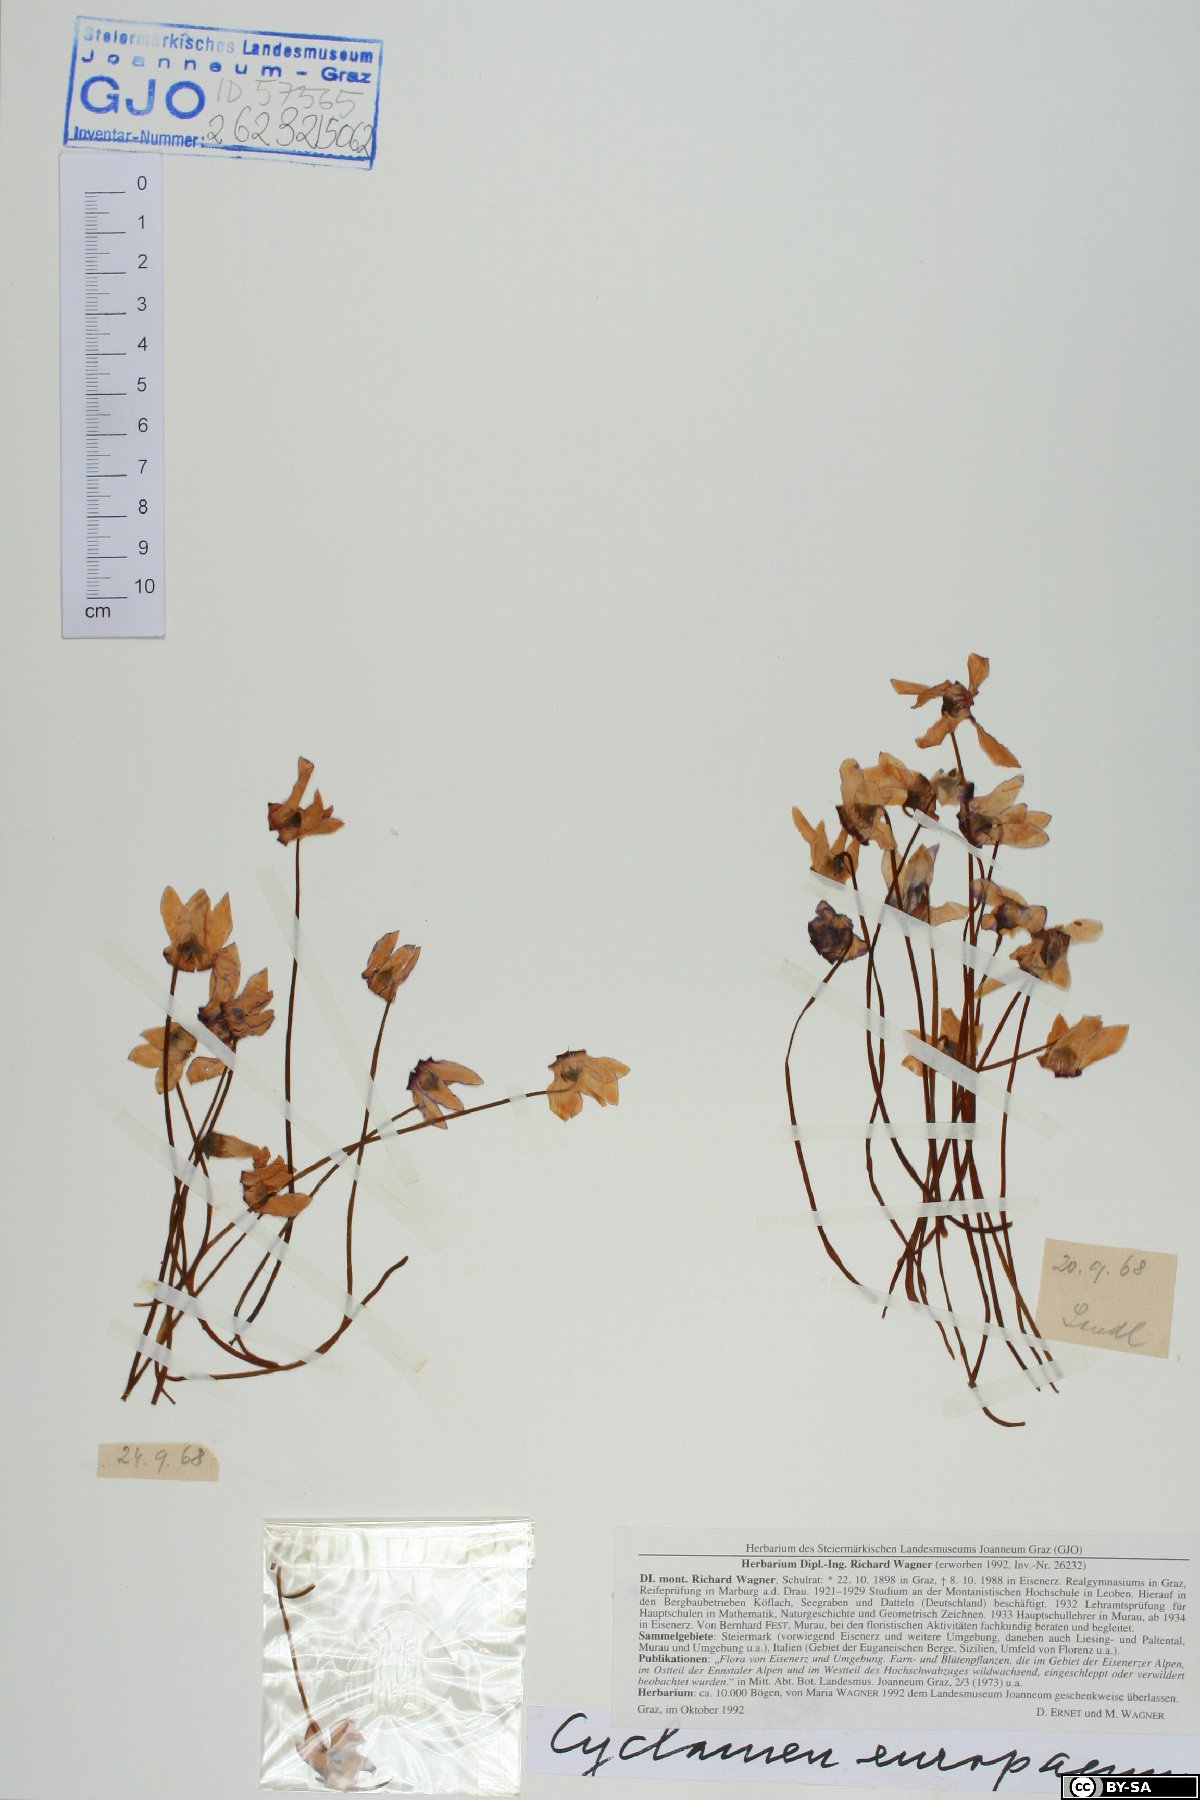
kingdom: Plantae
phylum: Tracheophyta
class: Magnoliopsida
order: Ericales
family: Primulaceae
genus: Cyclamen
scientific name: Cyclamen purpurascens
